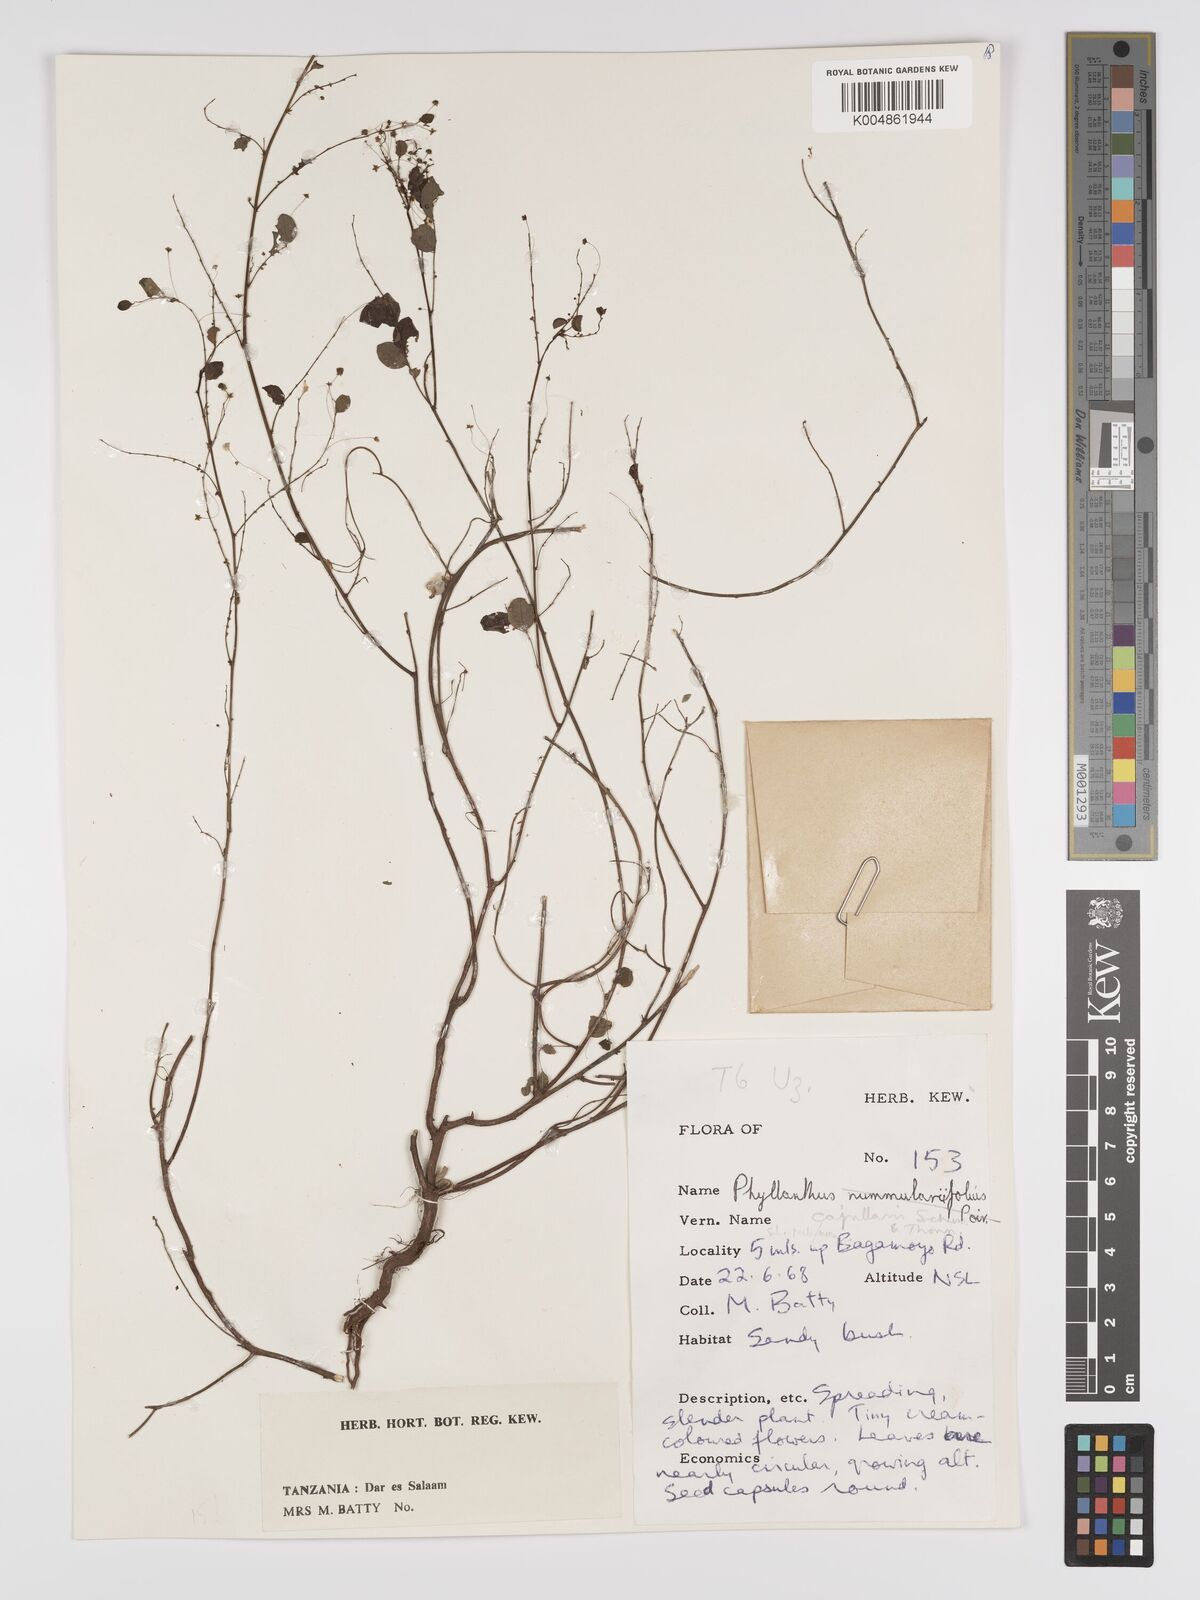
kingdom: Plantae
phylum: Tracheophyta
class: Magnoliopsida
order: Malpighiales
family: Phyllanthaceae
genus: Phyllanthus
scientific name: Phyllanthus nummulariifolius
